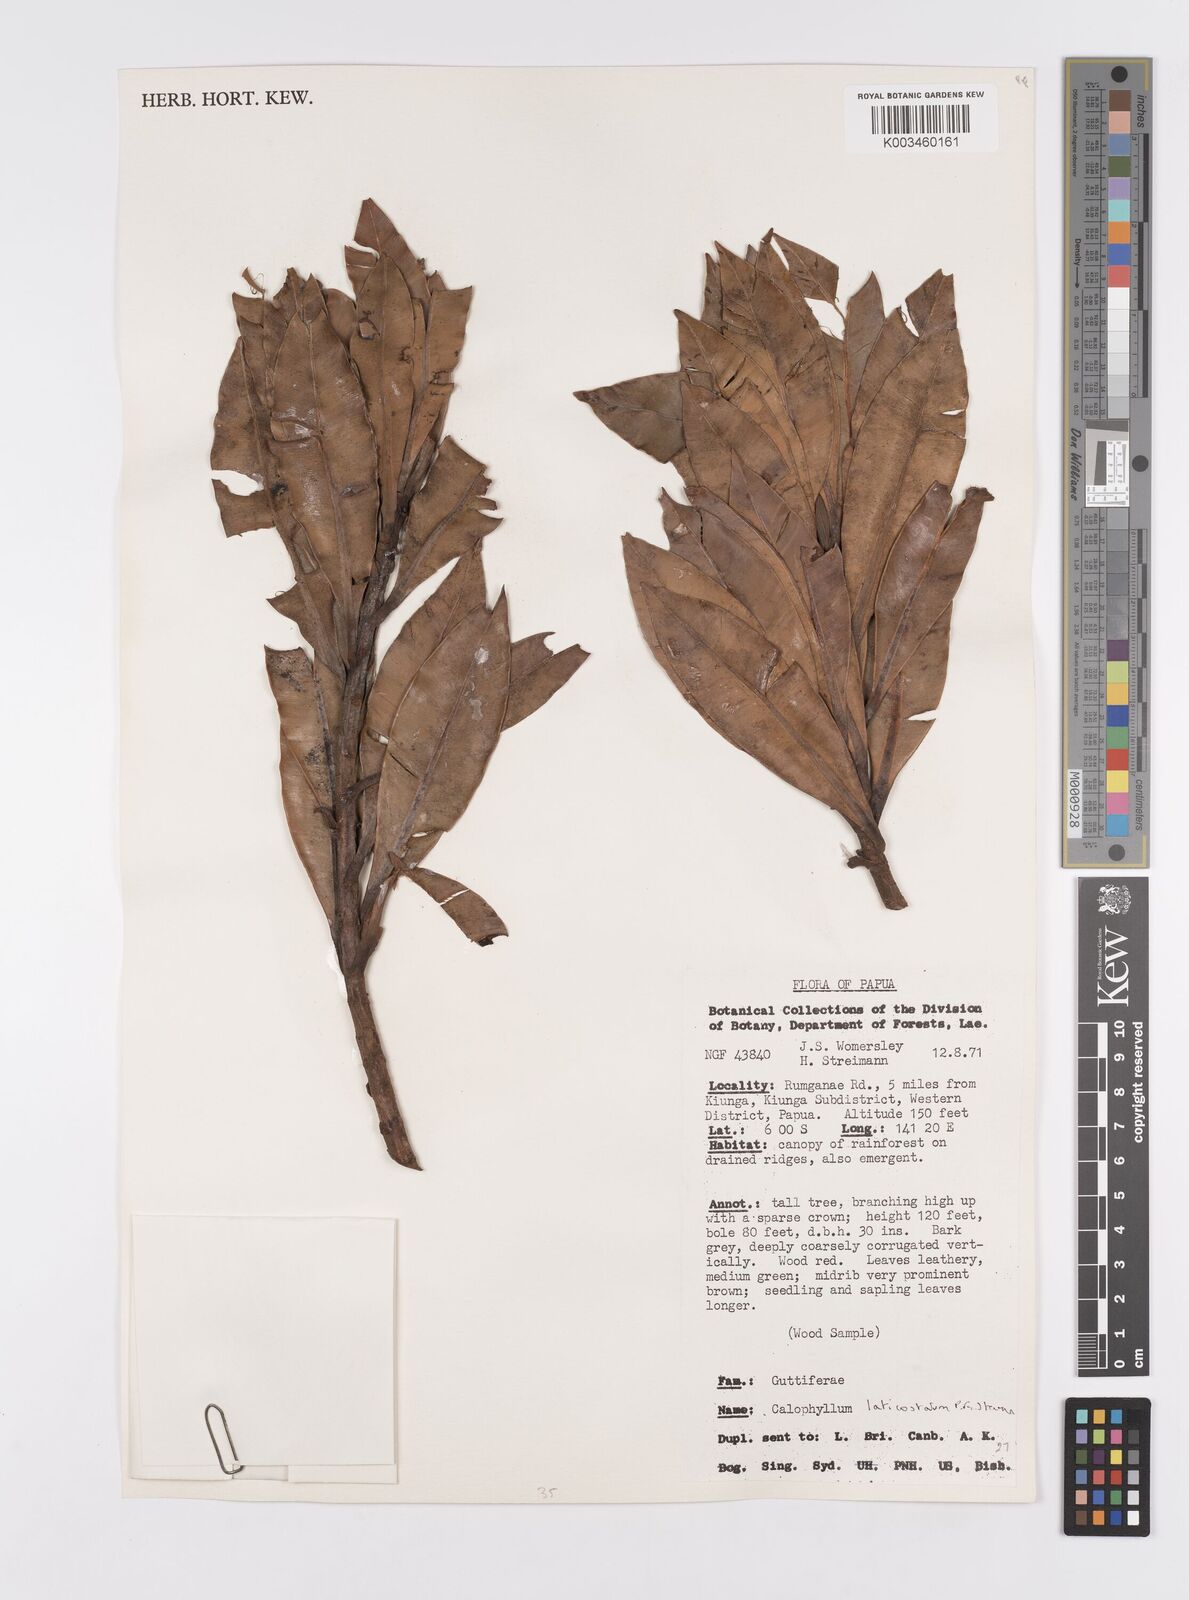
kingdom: Plantae
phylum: Tracheophyta
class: Magnoliopsida
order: Malpighiales
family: Calophyllaceae
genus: Calophyllum
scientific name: Calophyllum laticostatum
